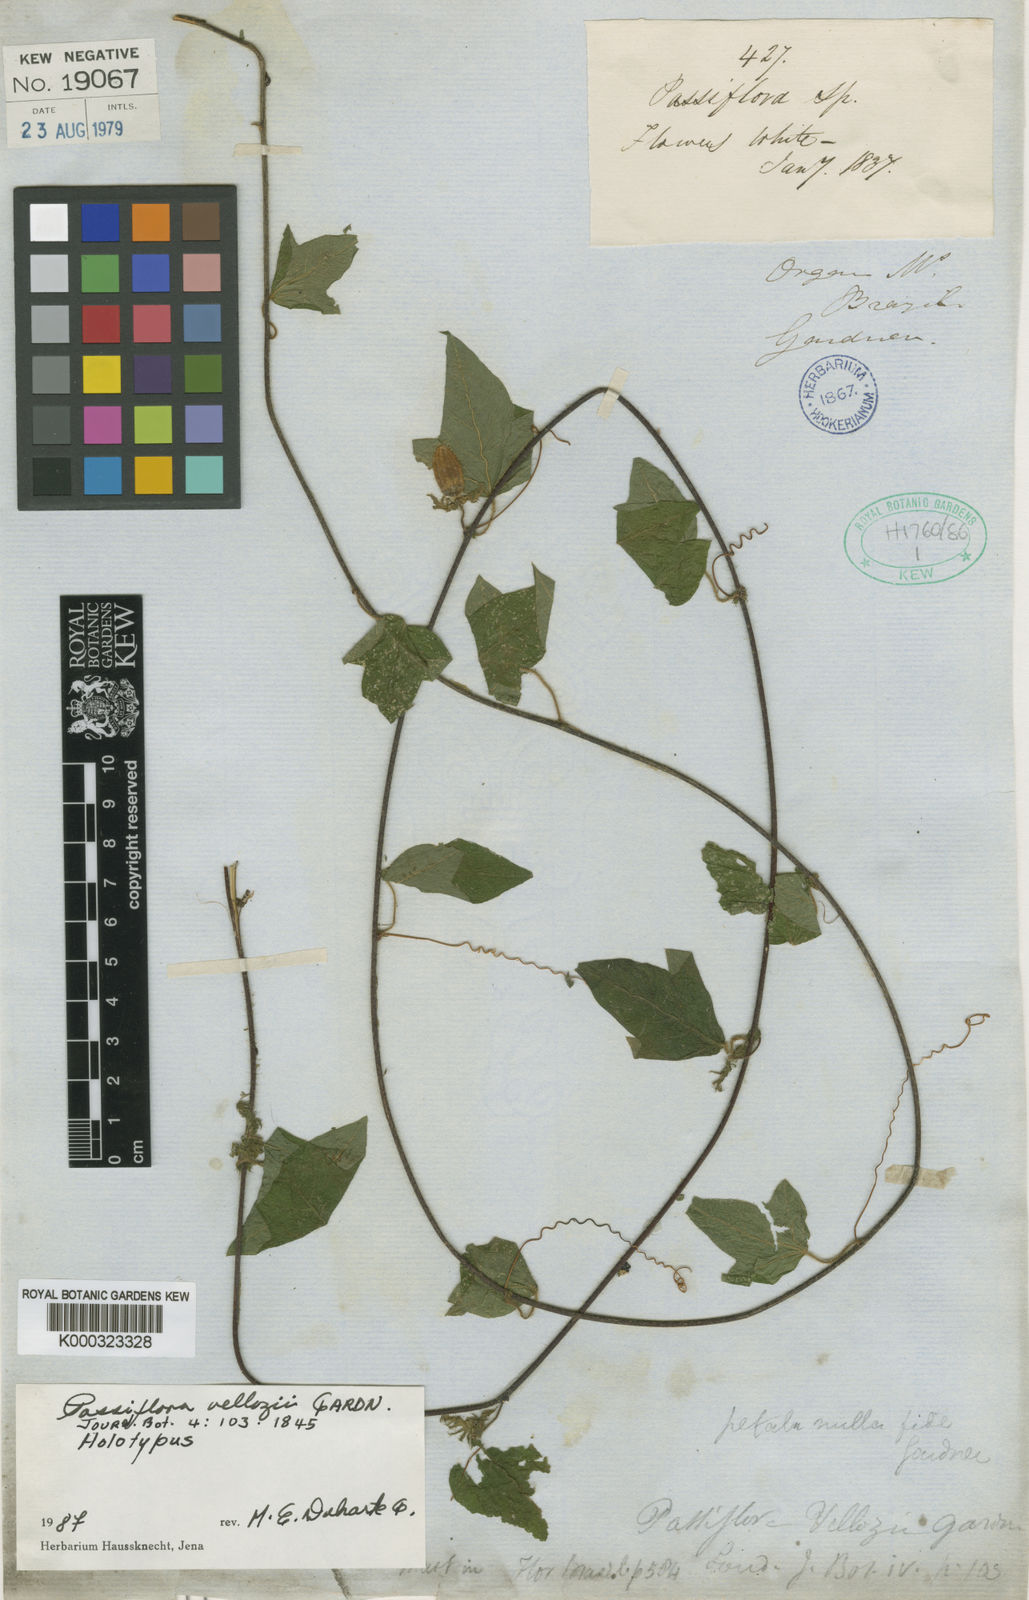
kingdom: Plantae
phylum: Tracheophyta
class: Magnoliopsida
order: Malpighiales
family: Passifloraceae
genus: Passiflora
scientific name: Passiflora
